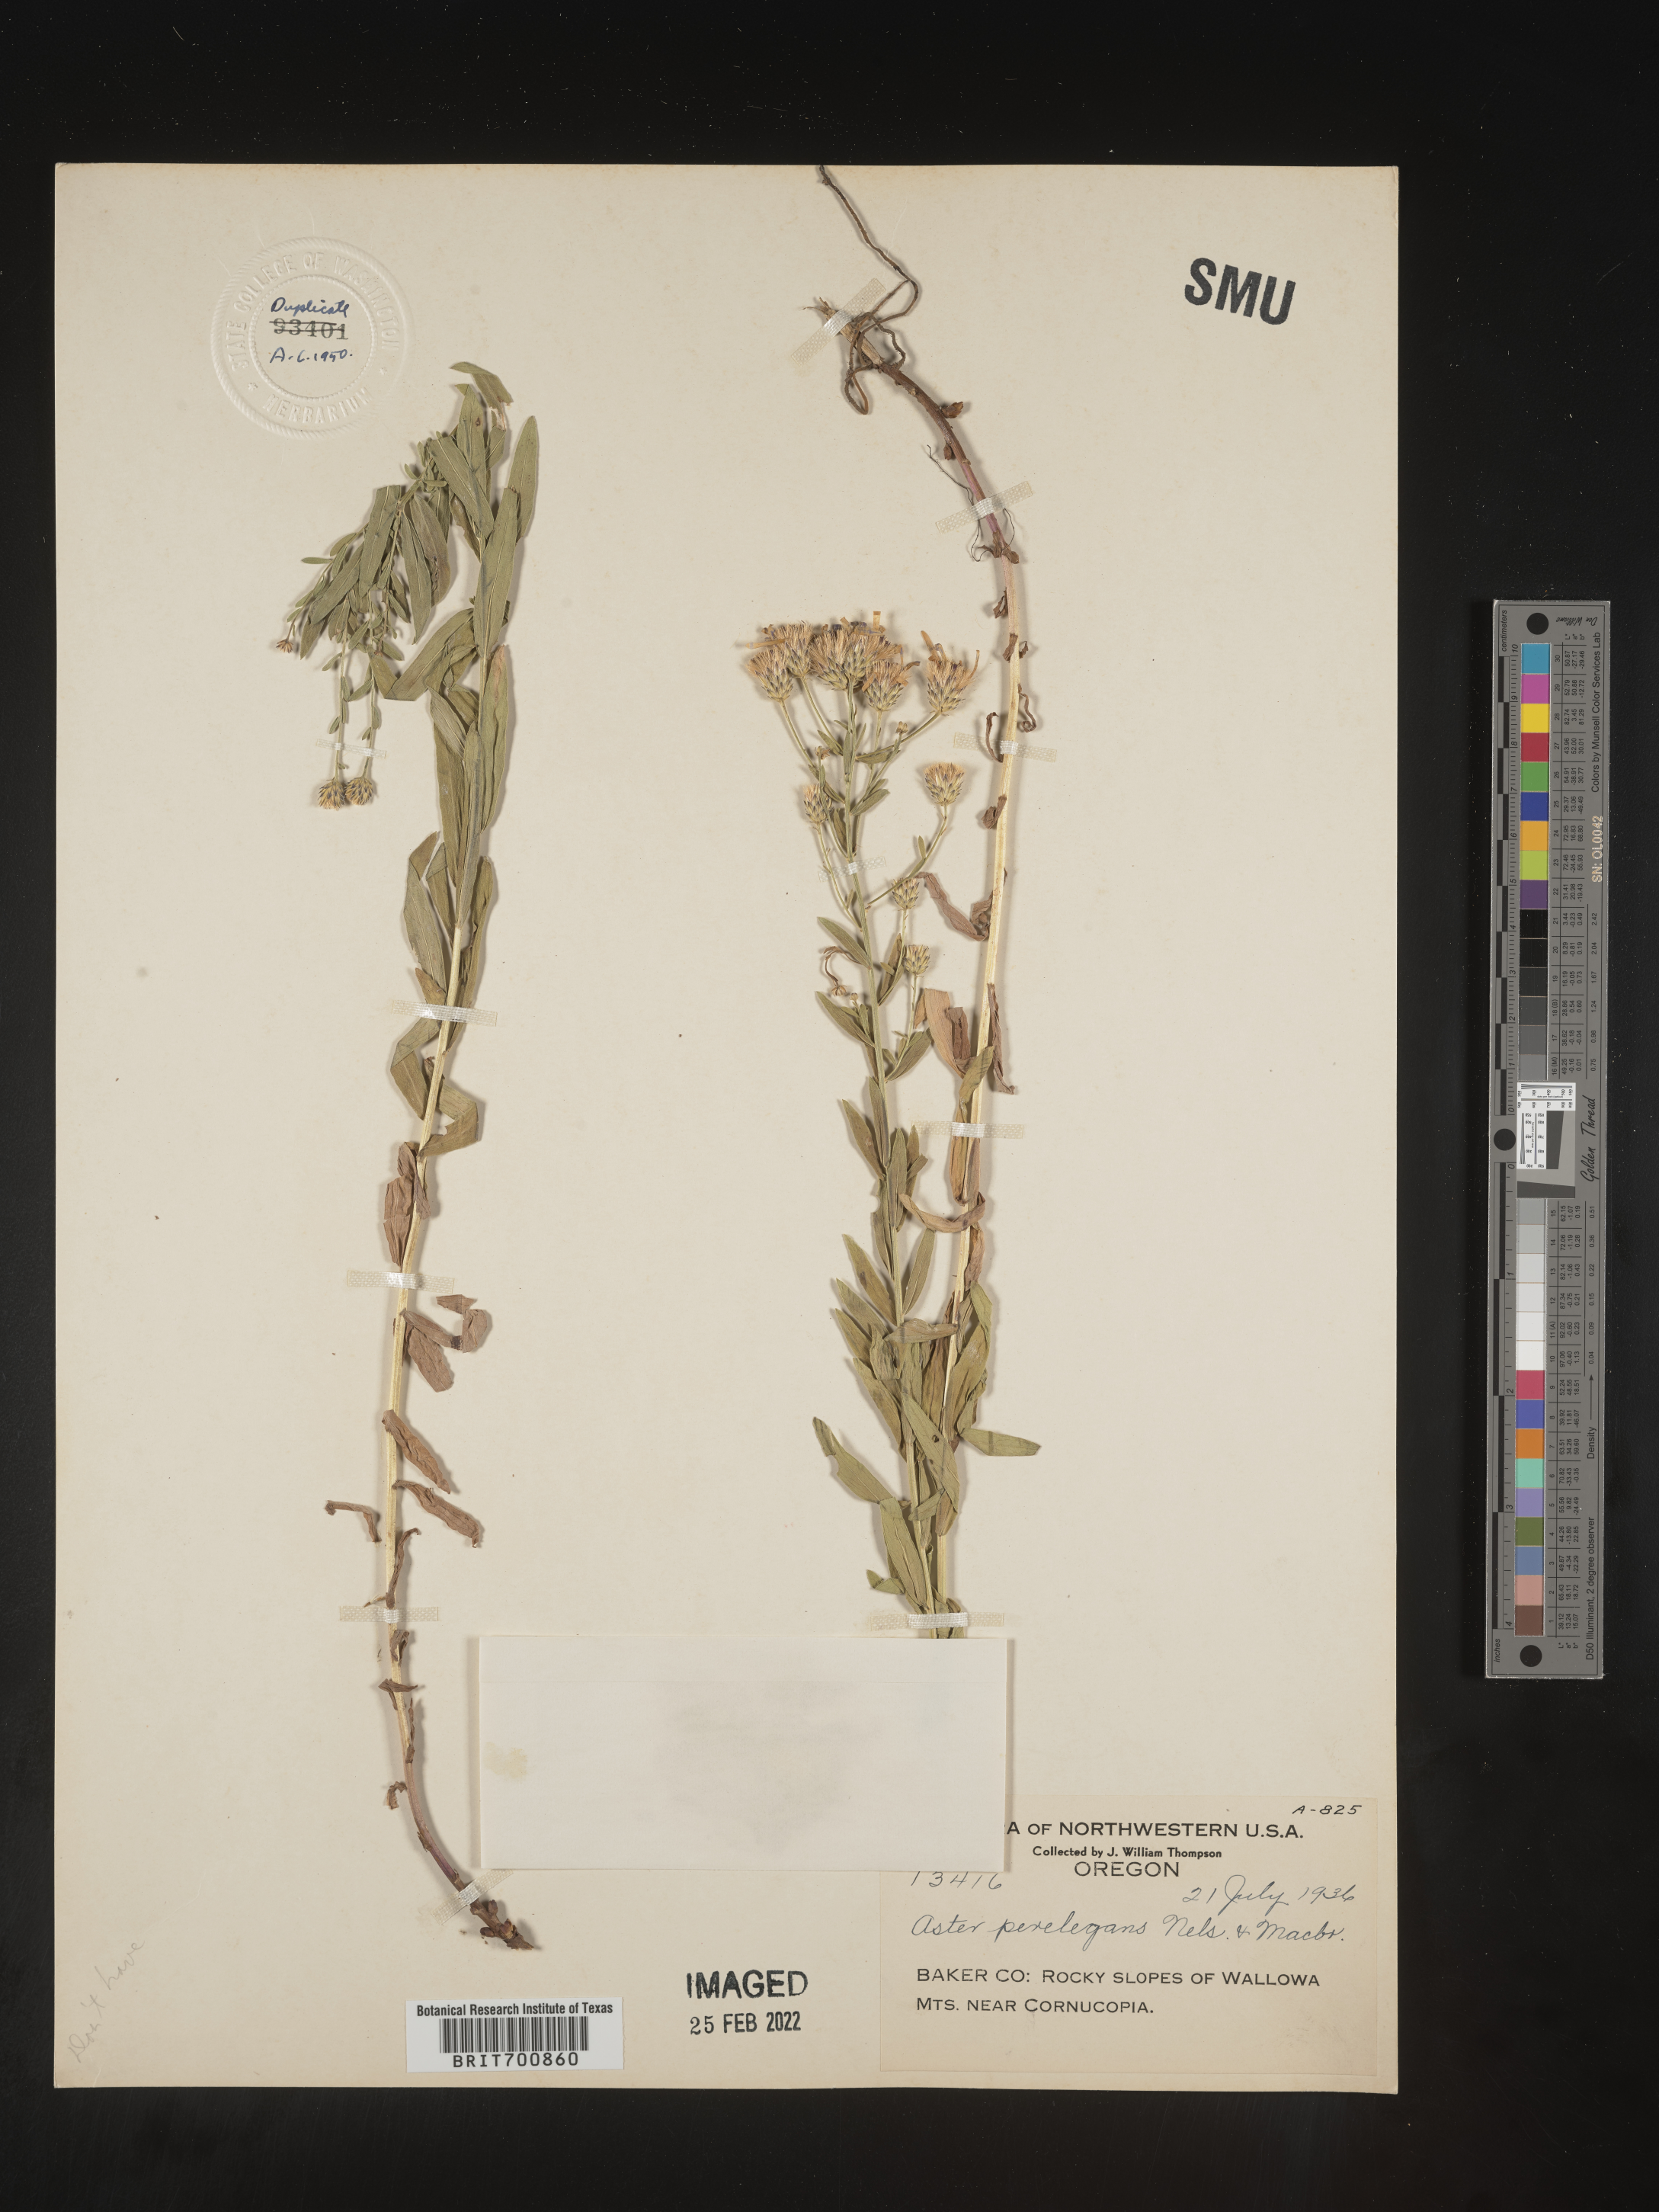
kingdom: Plantae
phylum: Tracheophyta
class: Magnoliopsida
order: Asterales
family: Asteraceae
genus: Doellingeria
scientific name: Doellingeria elegans
